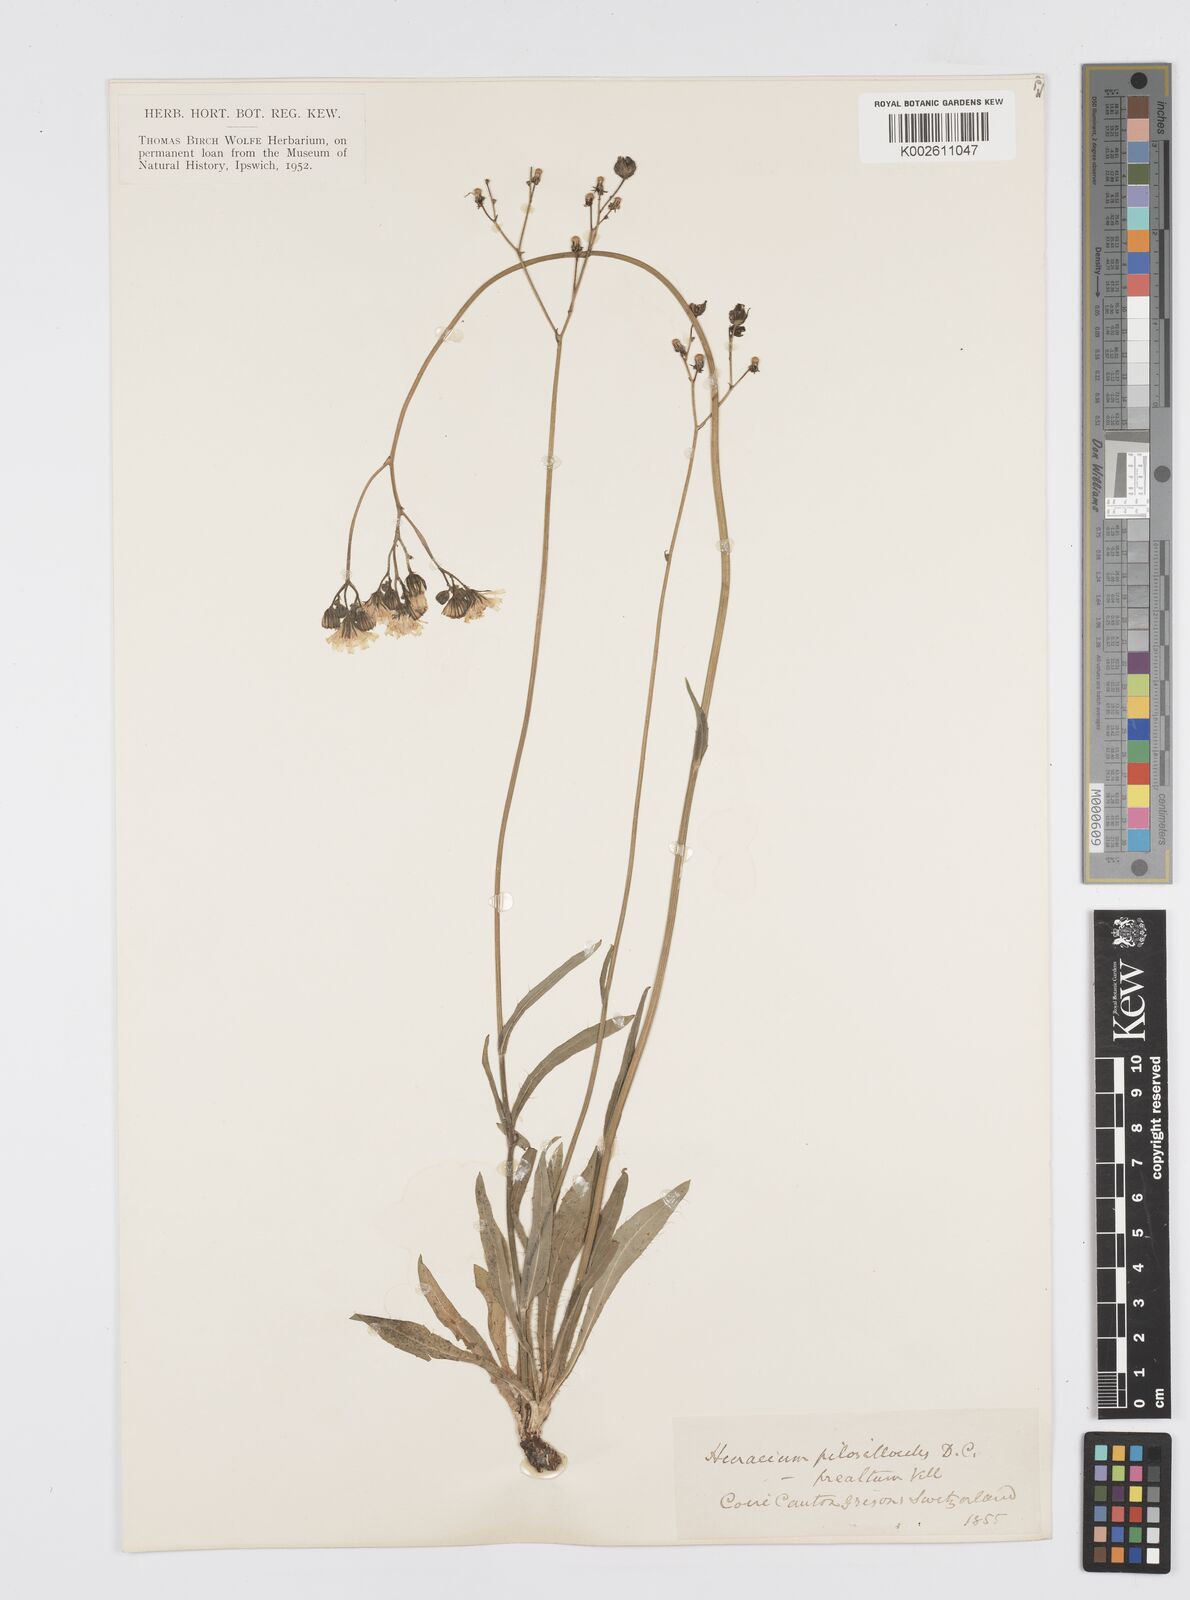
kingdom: Plantae
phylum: Tracheophyta
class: Magnoliopsida
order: Asterales
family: Asteraceae
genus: Pilosella
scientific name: Pilosella piloselloides
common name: Glaucous king-devil
